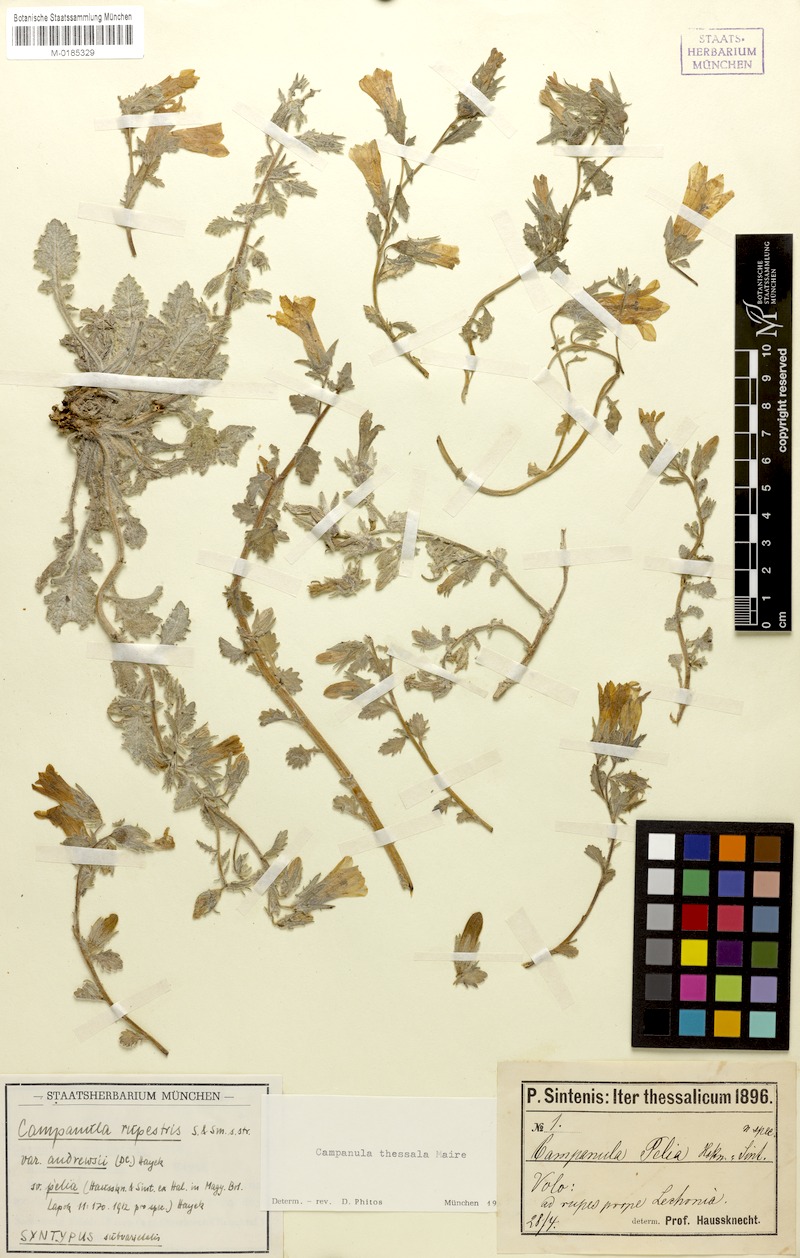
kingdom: Plantae
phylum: Tracheophyta
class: Magnoliopsida
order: Asterales
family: Campanulaceae
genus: Campanula
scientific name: Campanula pelia
